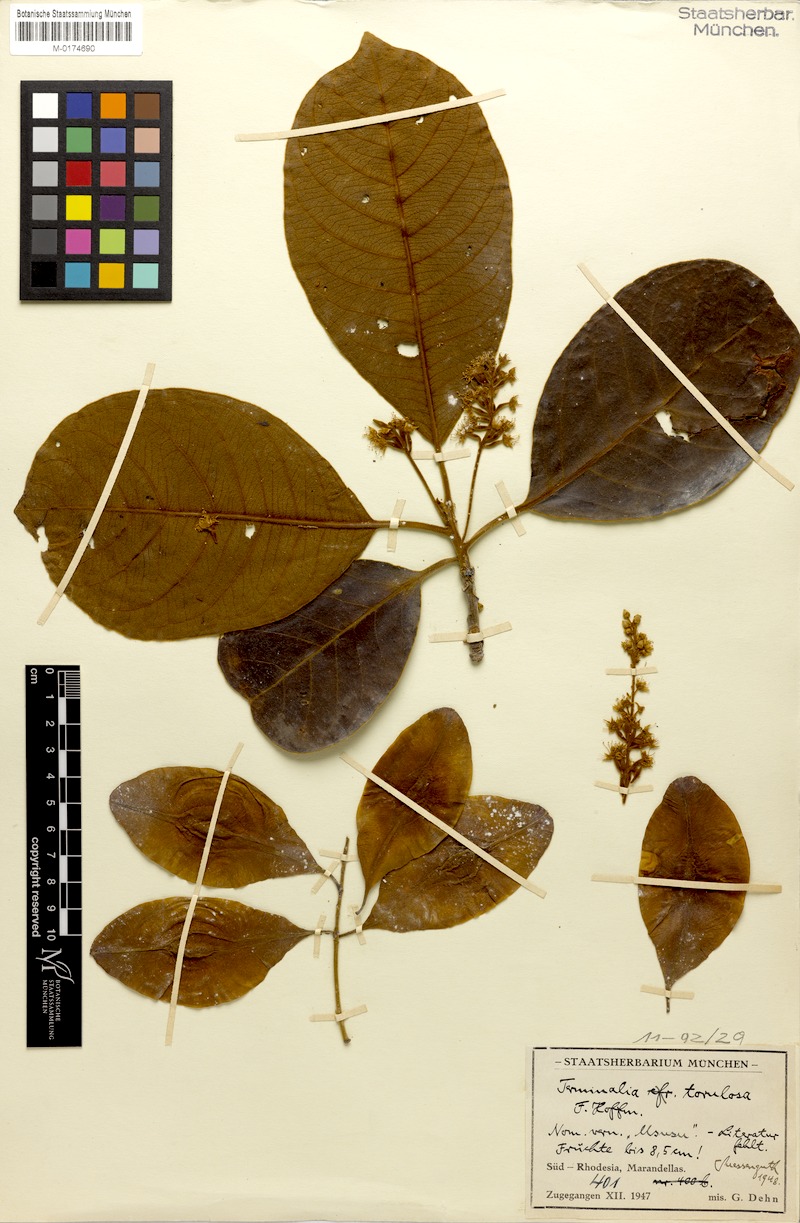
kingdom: Plantae
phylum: Tracheophyta
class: Magnoliopsida
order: Myrtales
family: Combretaceae
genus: Terminalia
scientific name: Terminalia mollis
